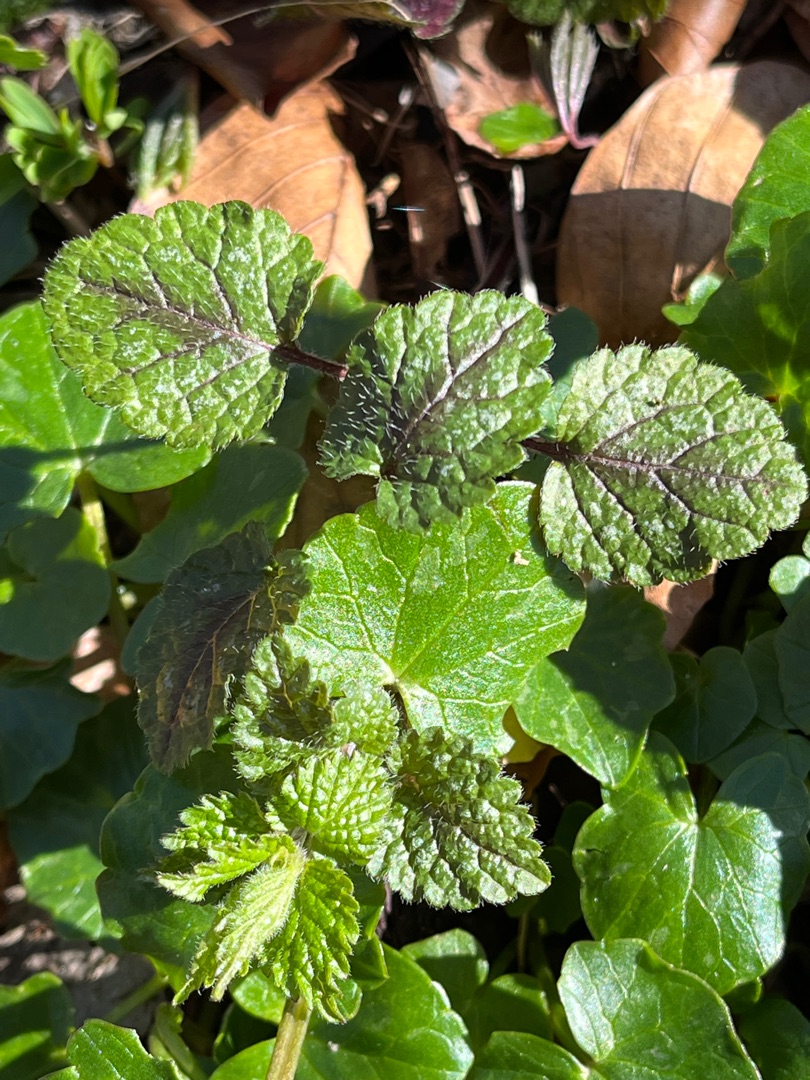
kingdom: Plantae
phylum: Tracheophyta
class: Magnoliopsida
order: Lamiales
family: Lamiaceae
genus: Lamium
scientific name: Lamium galeobdolon
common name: Guldnælde
